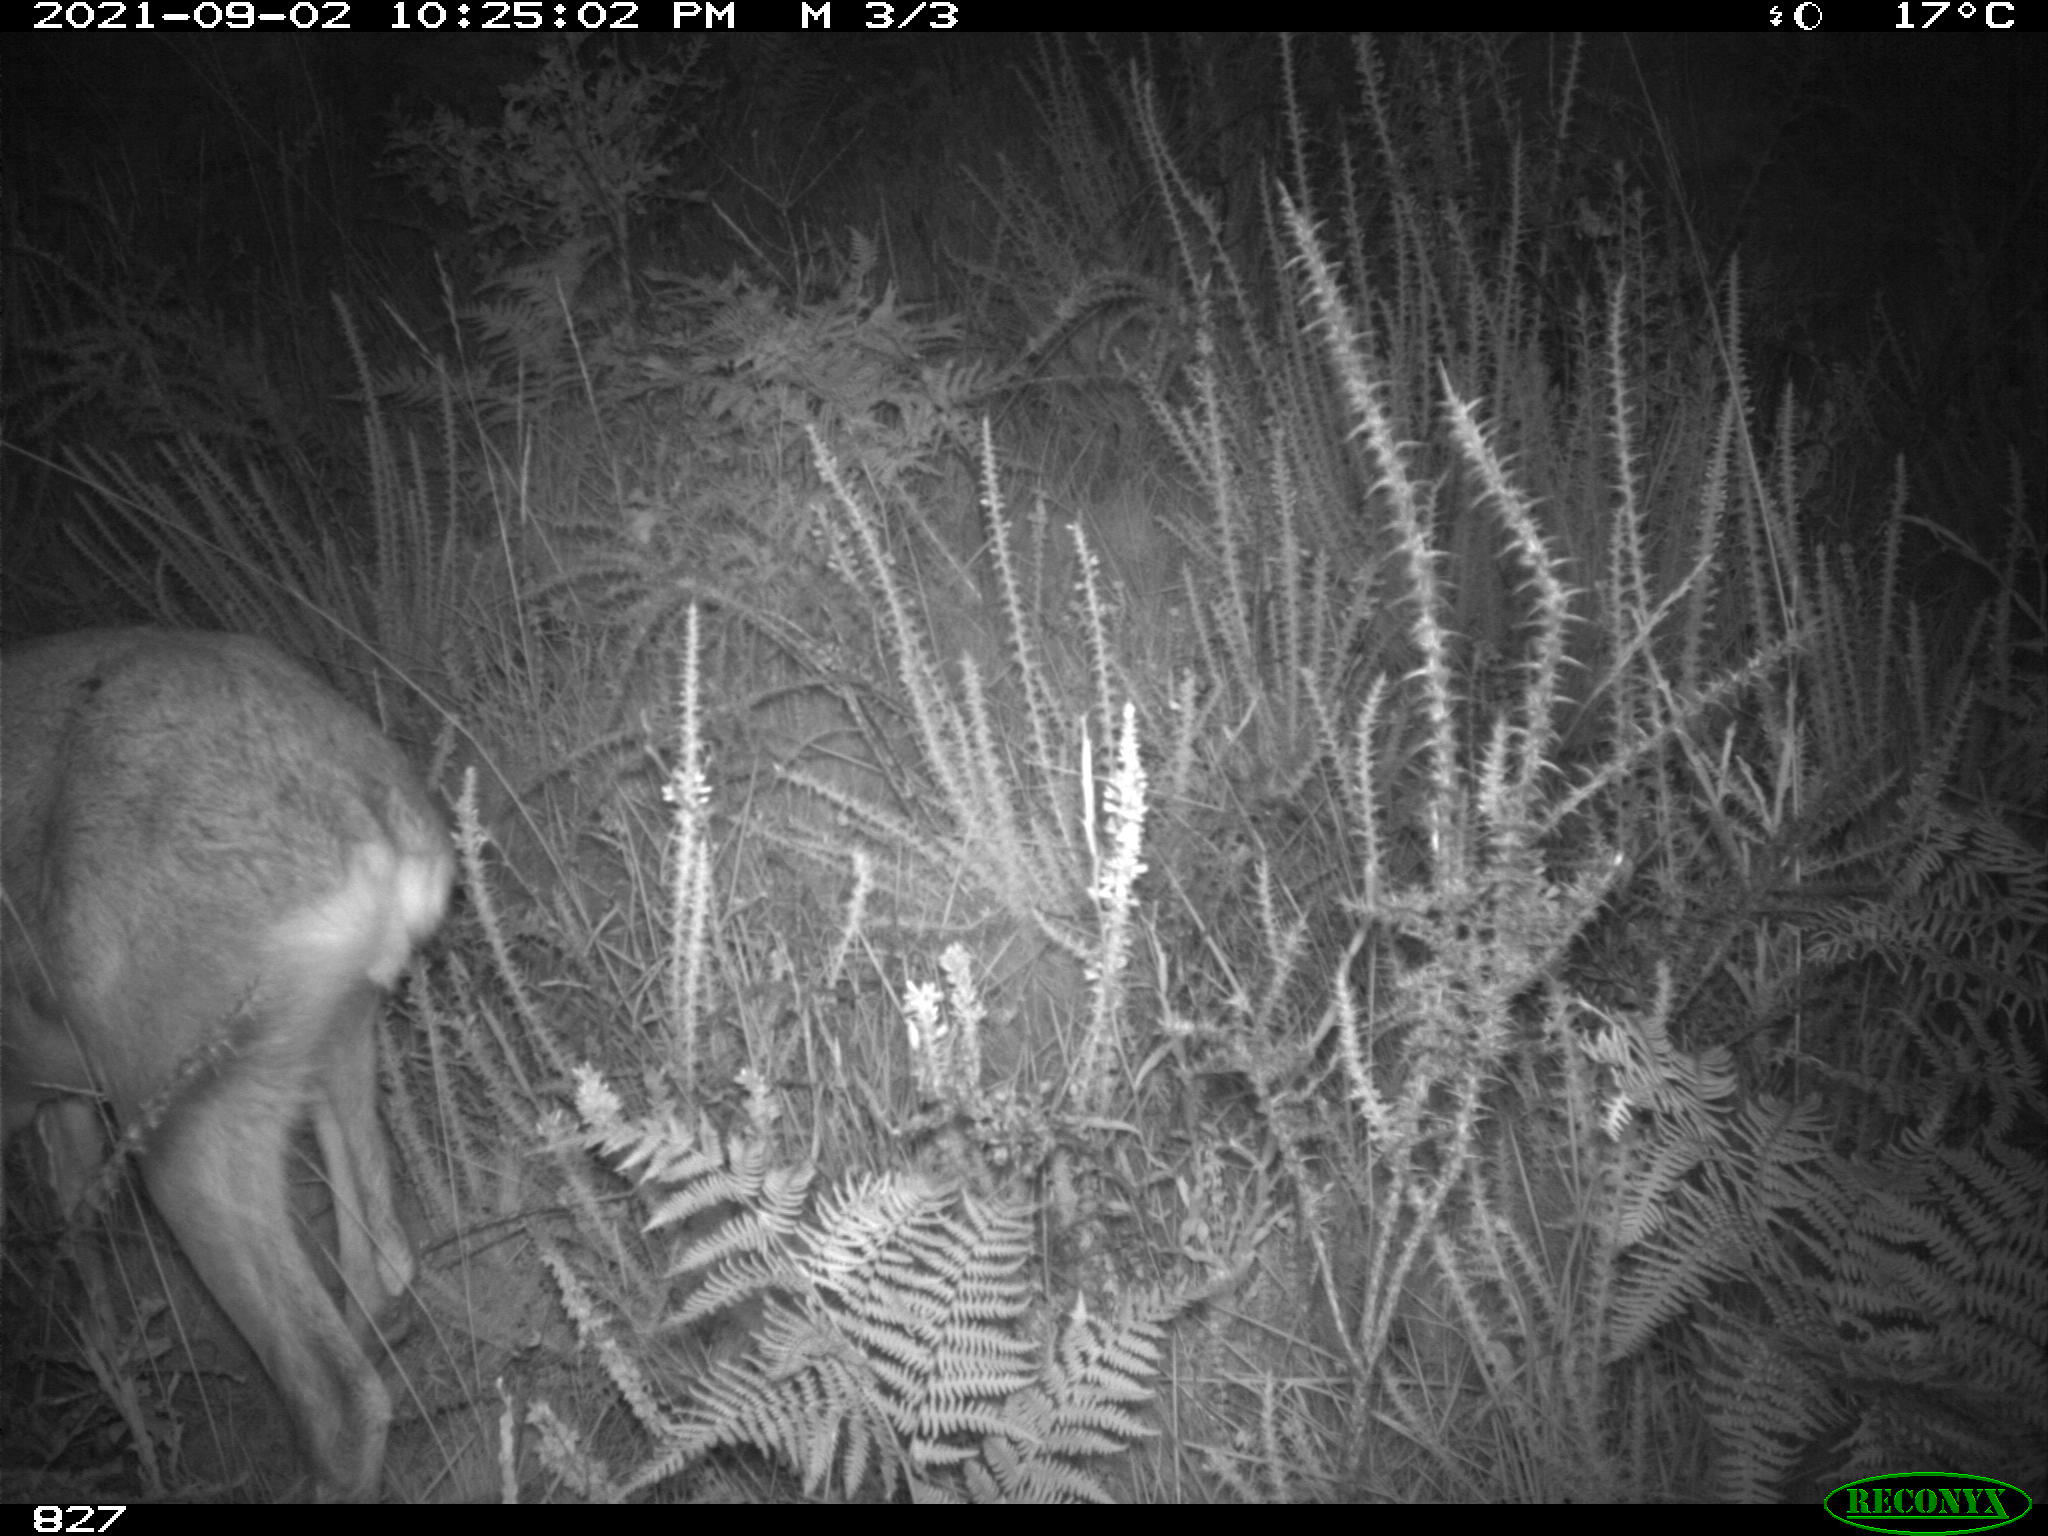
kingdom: Animalia
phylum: Chordata
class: Mammalia
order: Artiodactyla
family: Cervidae
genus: Capreolus
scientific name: Capreolus capreolus
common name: Western roe deer
